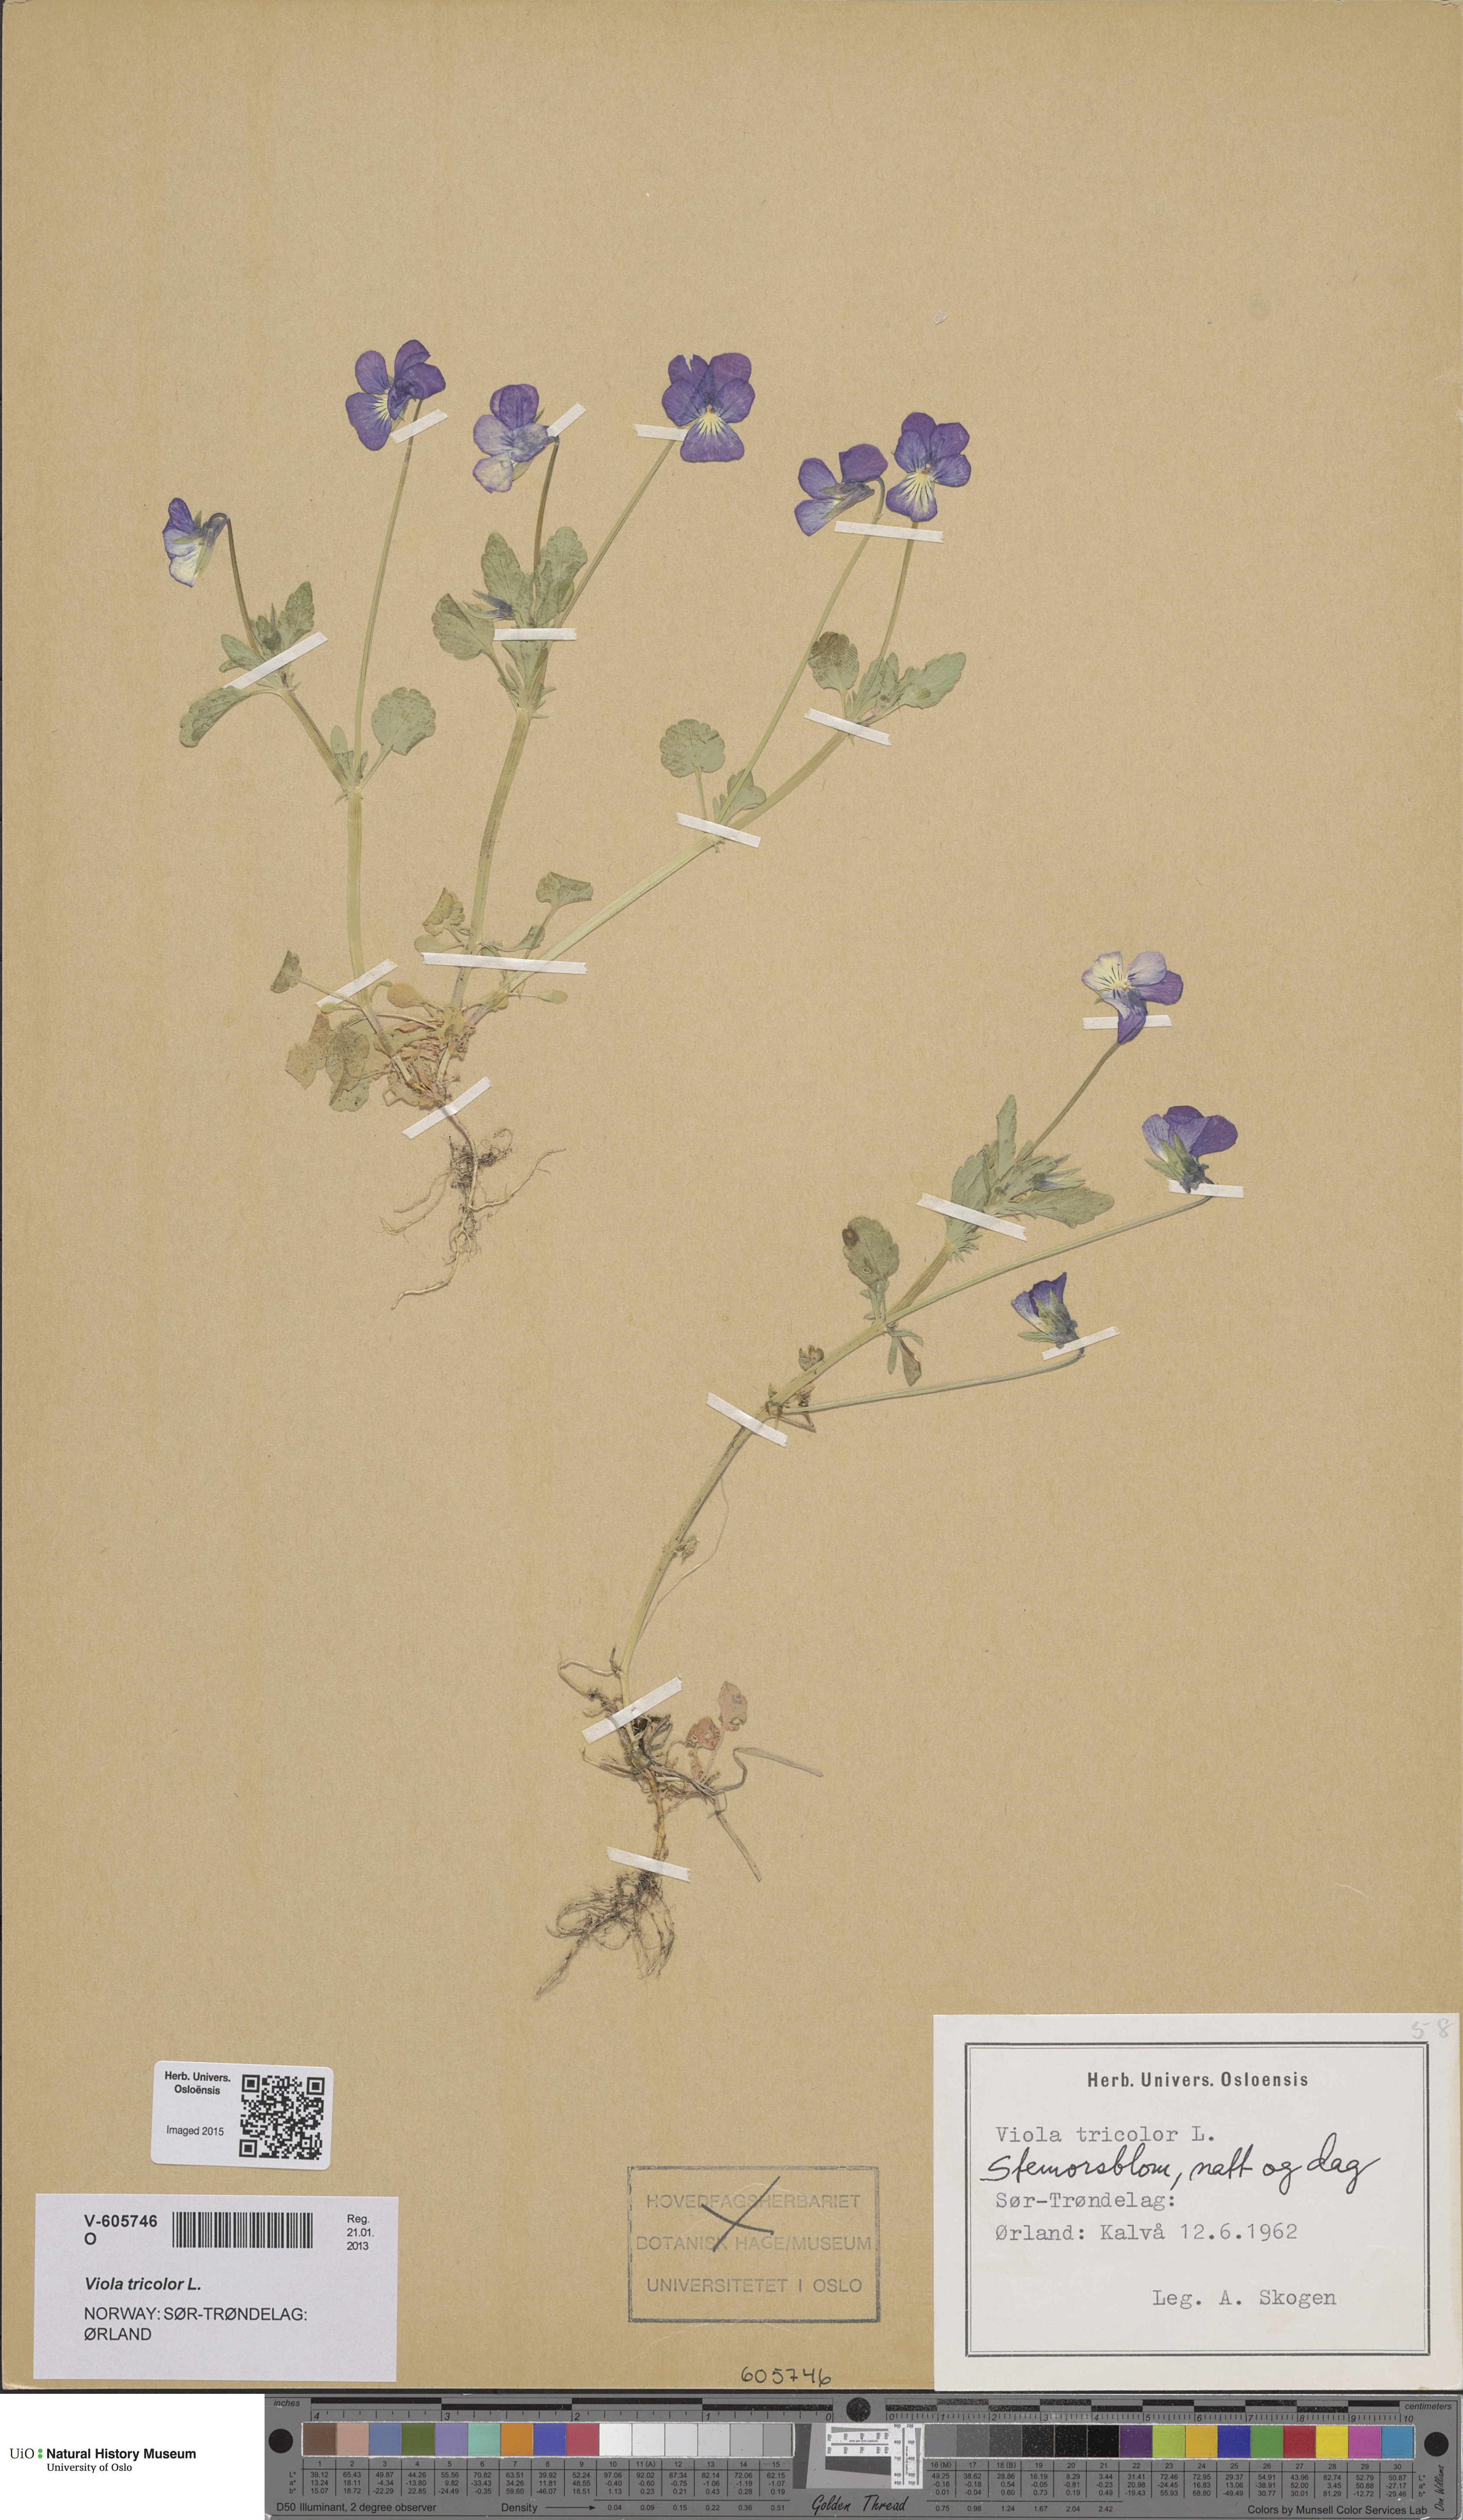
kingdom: Plantae
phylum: Tracheophyta
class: Magnoliopsida
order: Malpighiales
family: Violaceae
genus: Viola
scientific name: Viola tricolor
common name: Pansy
